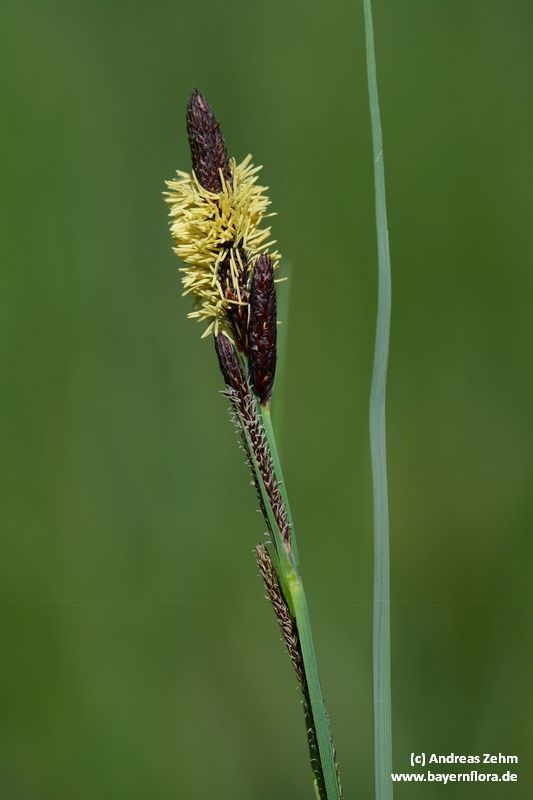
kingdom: Plantae
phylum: Tracheophyta
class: Liliopsida
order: Poales
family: Cyperaceae
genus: Carex
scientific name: Carex acuta
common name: Slender tufted-sedge
